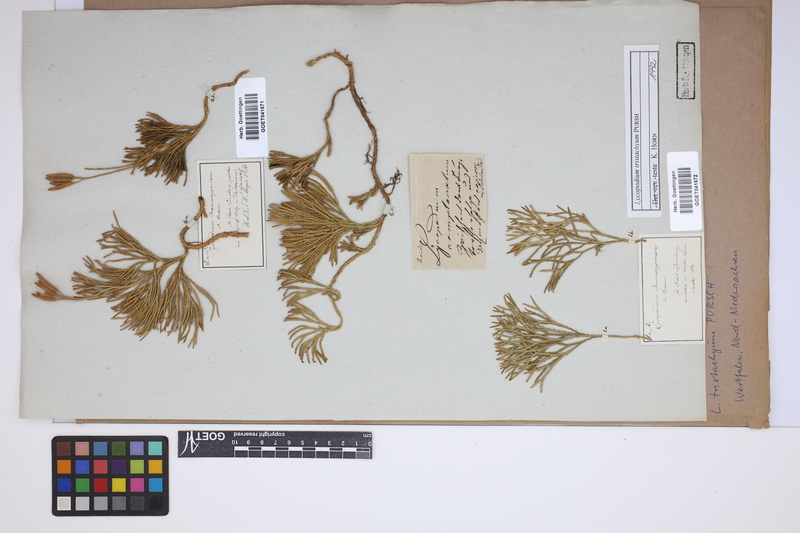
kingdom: Plantae
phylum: Tracheophyta
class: Lycopodiopsida
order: Lycopodiales
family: Lycopodiaceae
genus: Diphasiastrum
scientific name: Diphasiastrum tristachyum
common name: Blue ground-cedar
